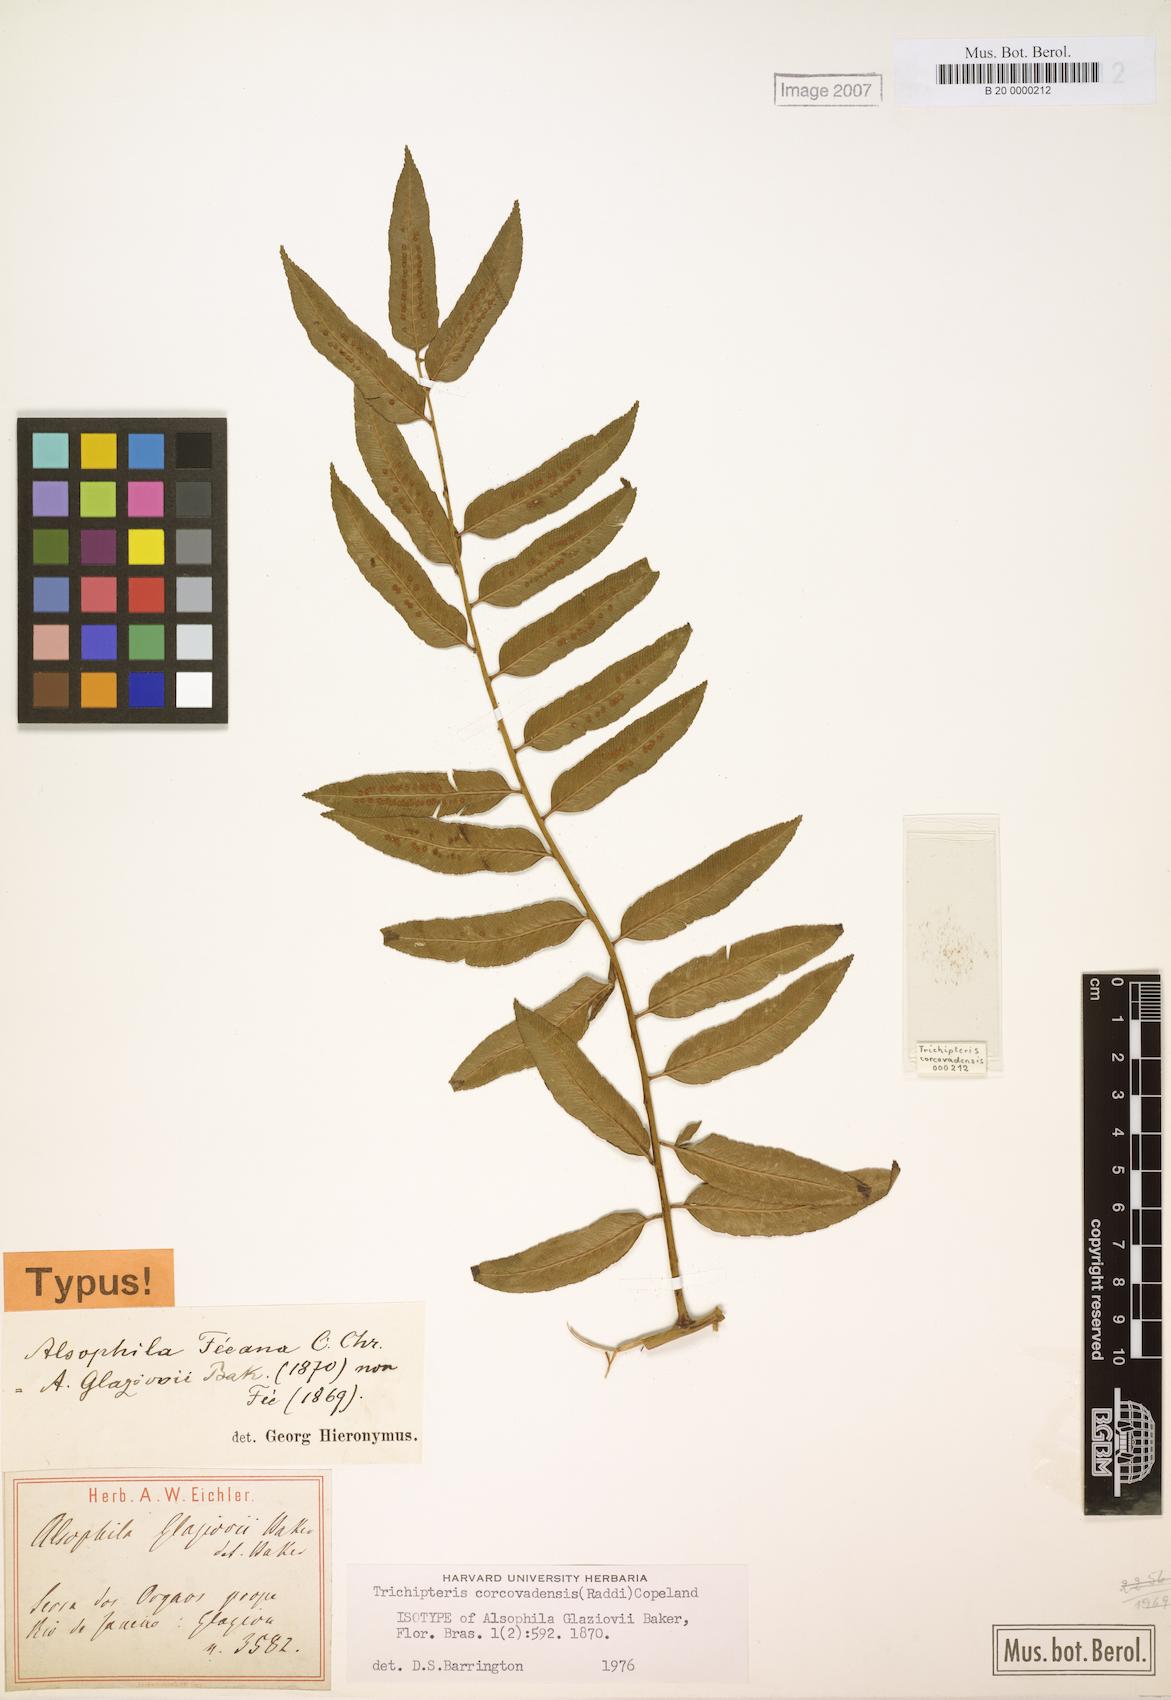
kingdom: Plantae
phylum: Tracheophyta
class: Polypodiopsida
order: Cyatheales
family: Cyatheaceae
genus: Cyathea
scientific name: Cyathea corcovadensis
